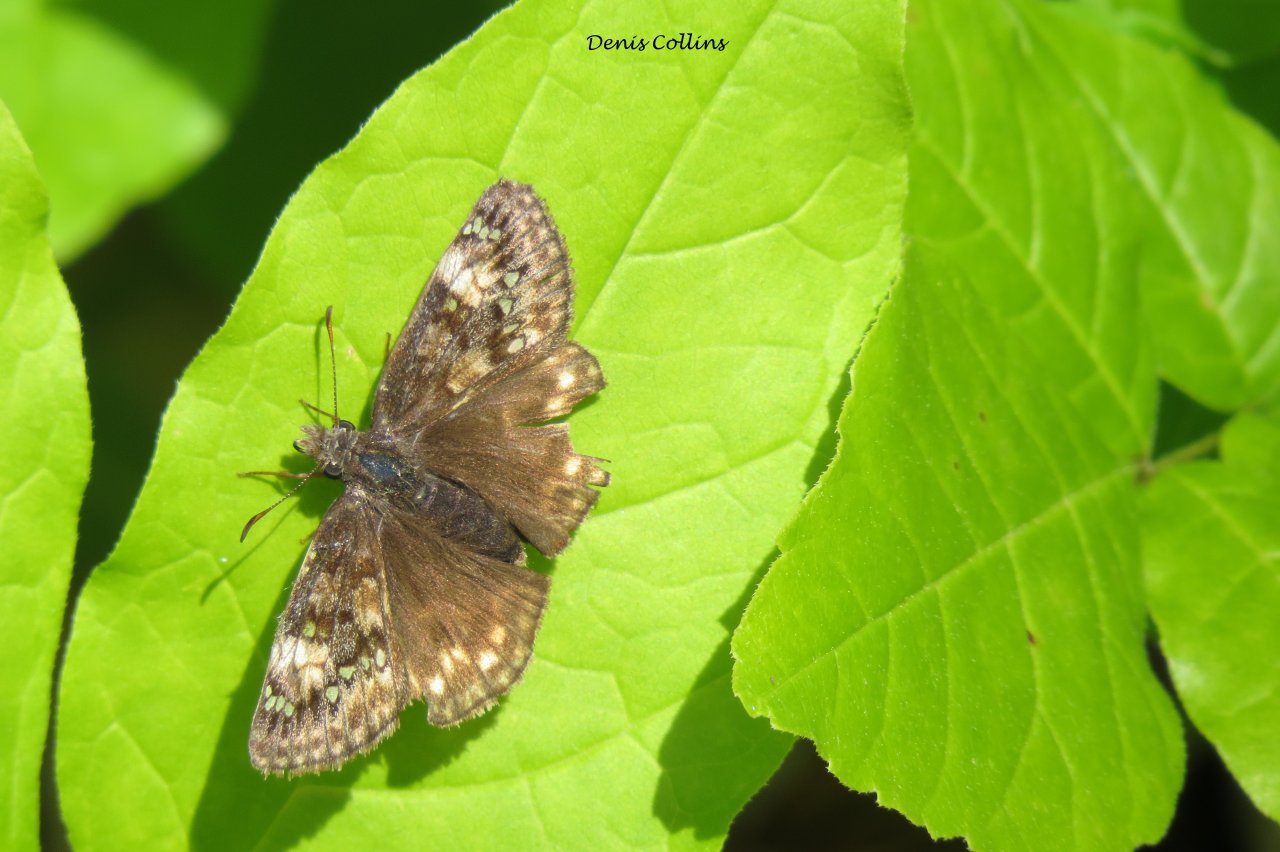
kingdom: Animalia
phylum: Arthropoda
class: Insecta
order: Lepidoptera
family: Hesperiidae
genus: Gesta
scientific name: Gesta
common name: Juvenal's Duskywing
